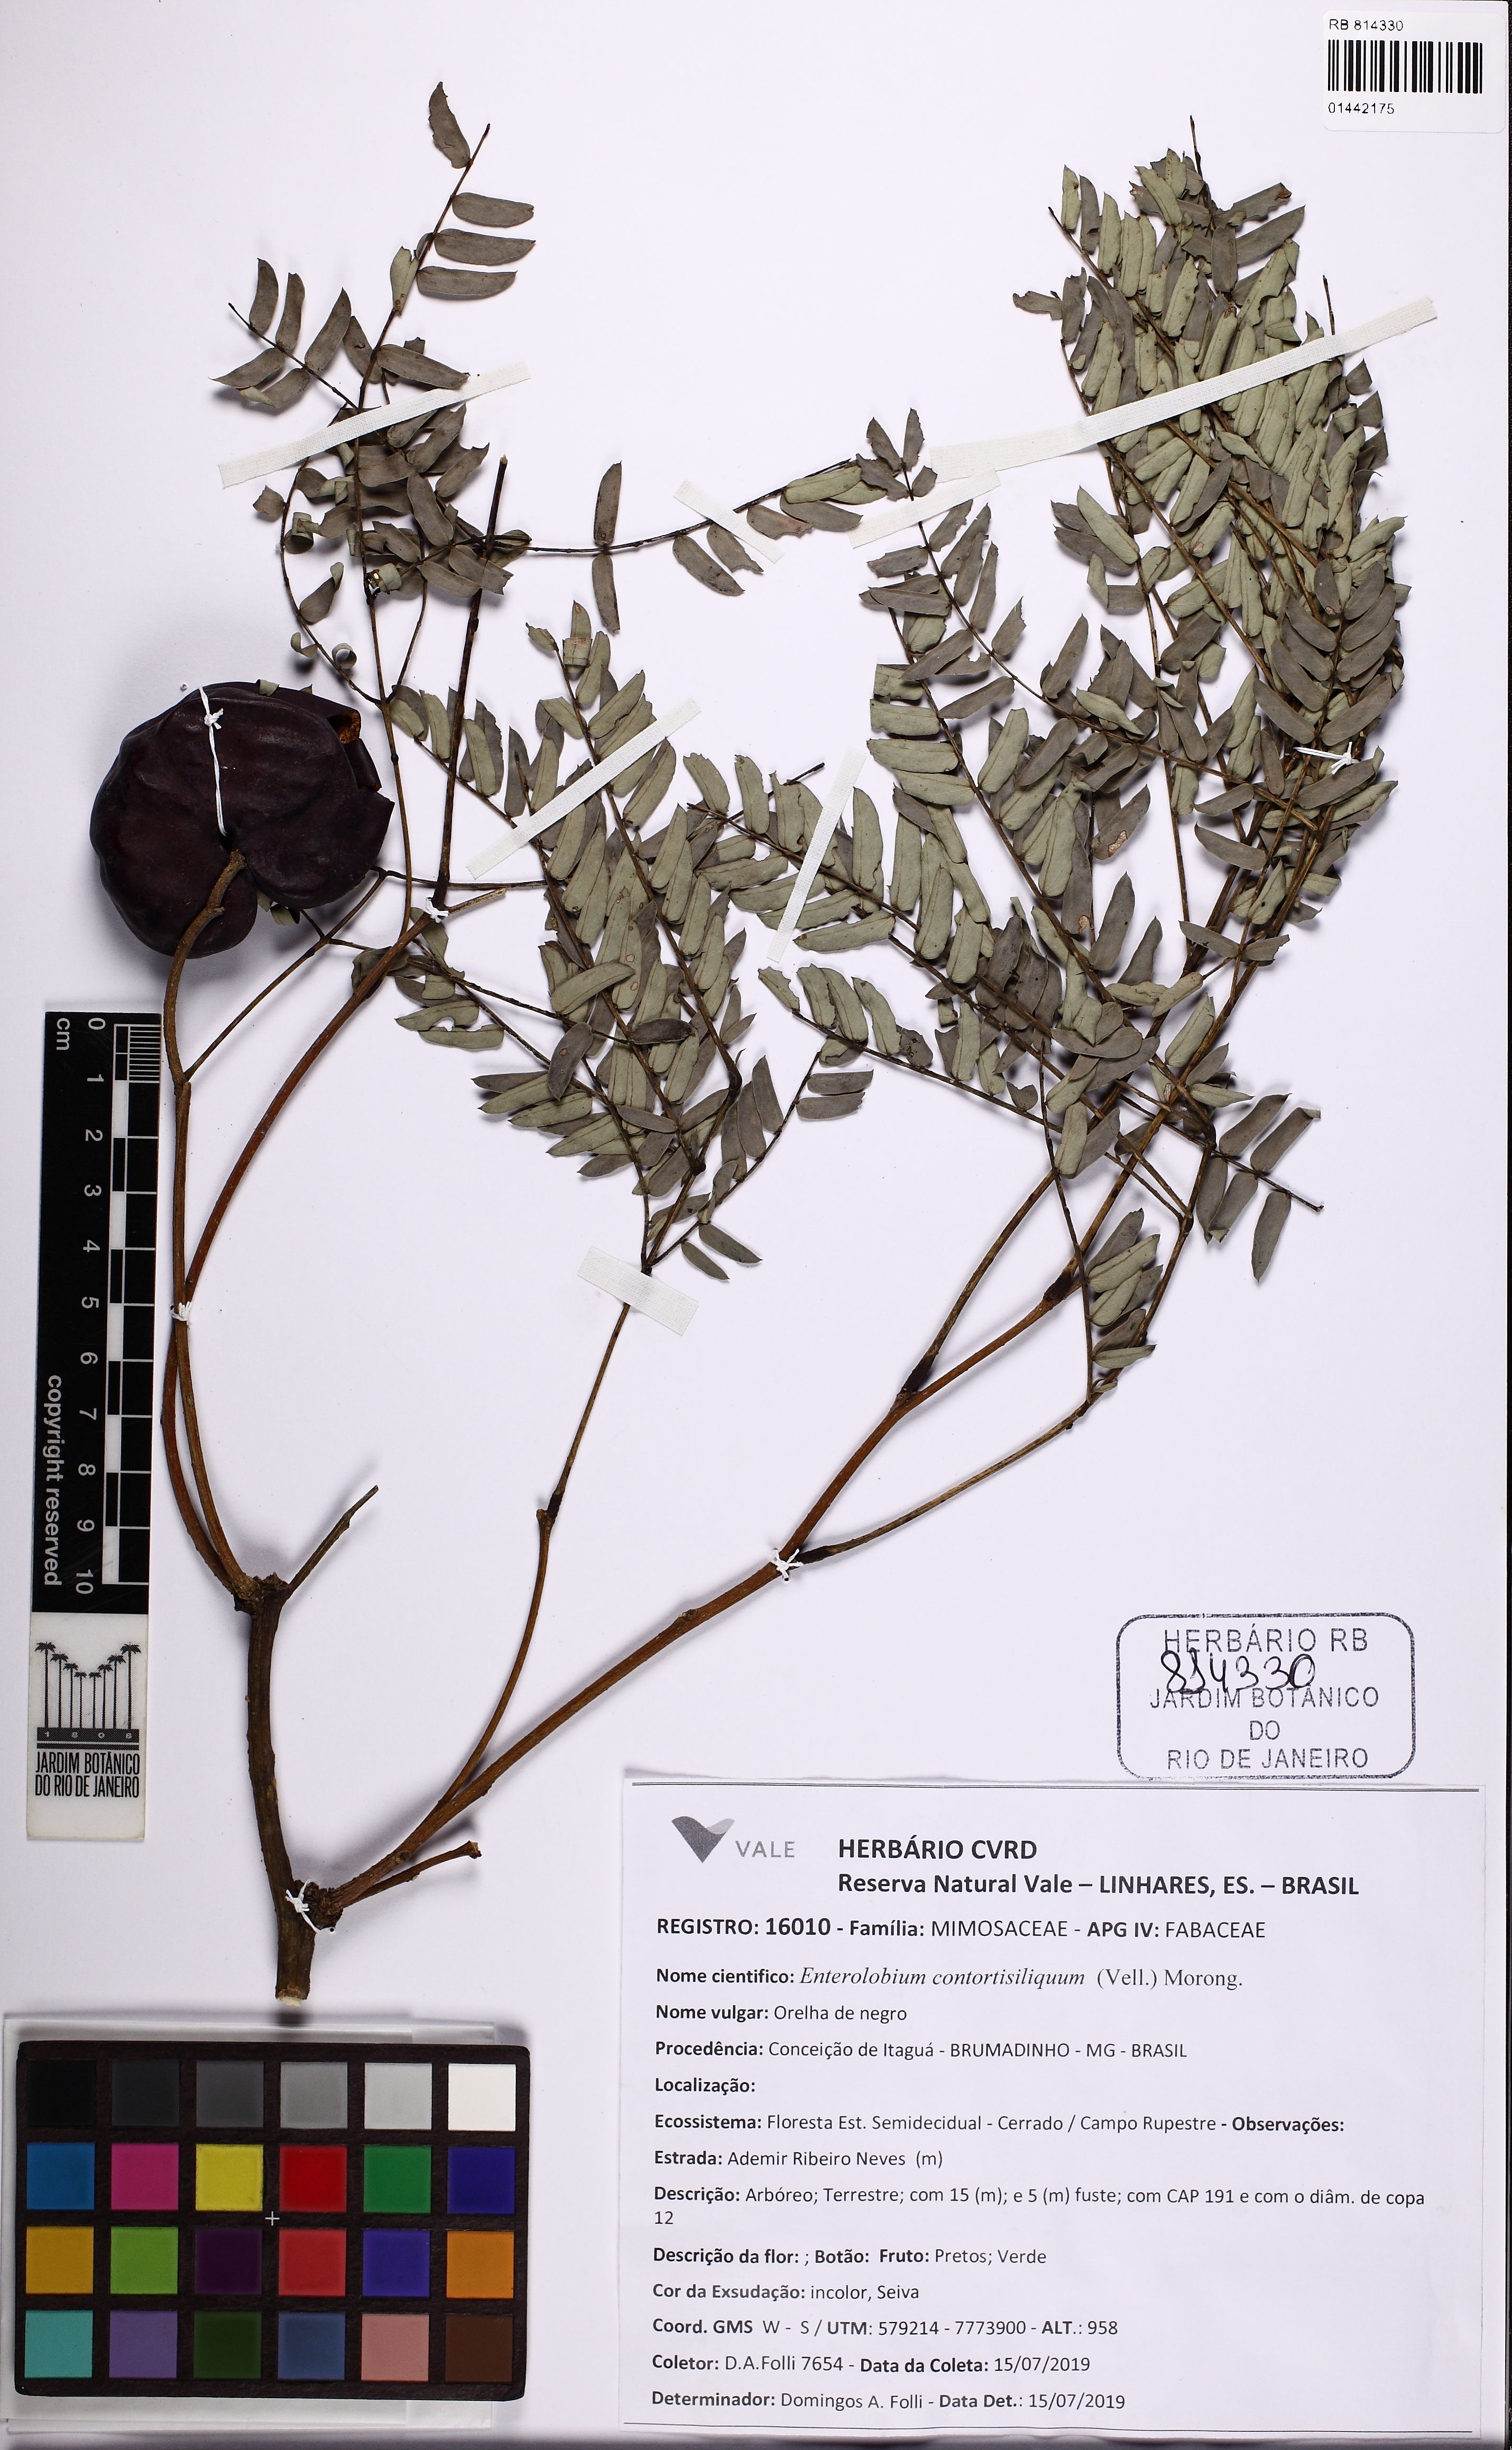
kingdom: Plantae
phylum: Tracheophyta
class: Magnoliopsida
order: Fabales
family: Fabaceae
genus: Enterolobium
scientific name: Enterolobium contortisiliquum
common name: Pacara earpod tree
